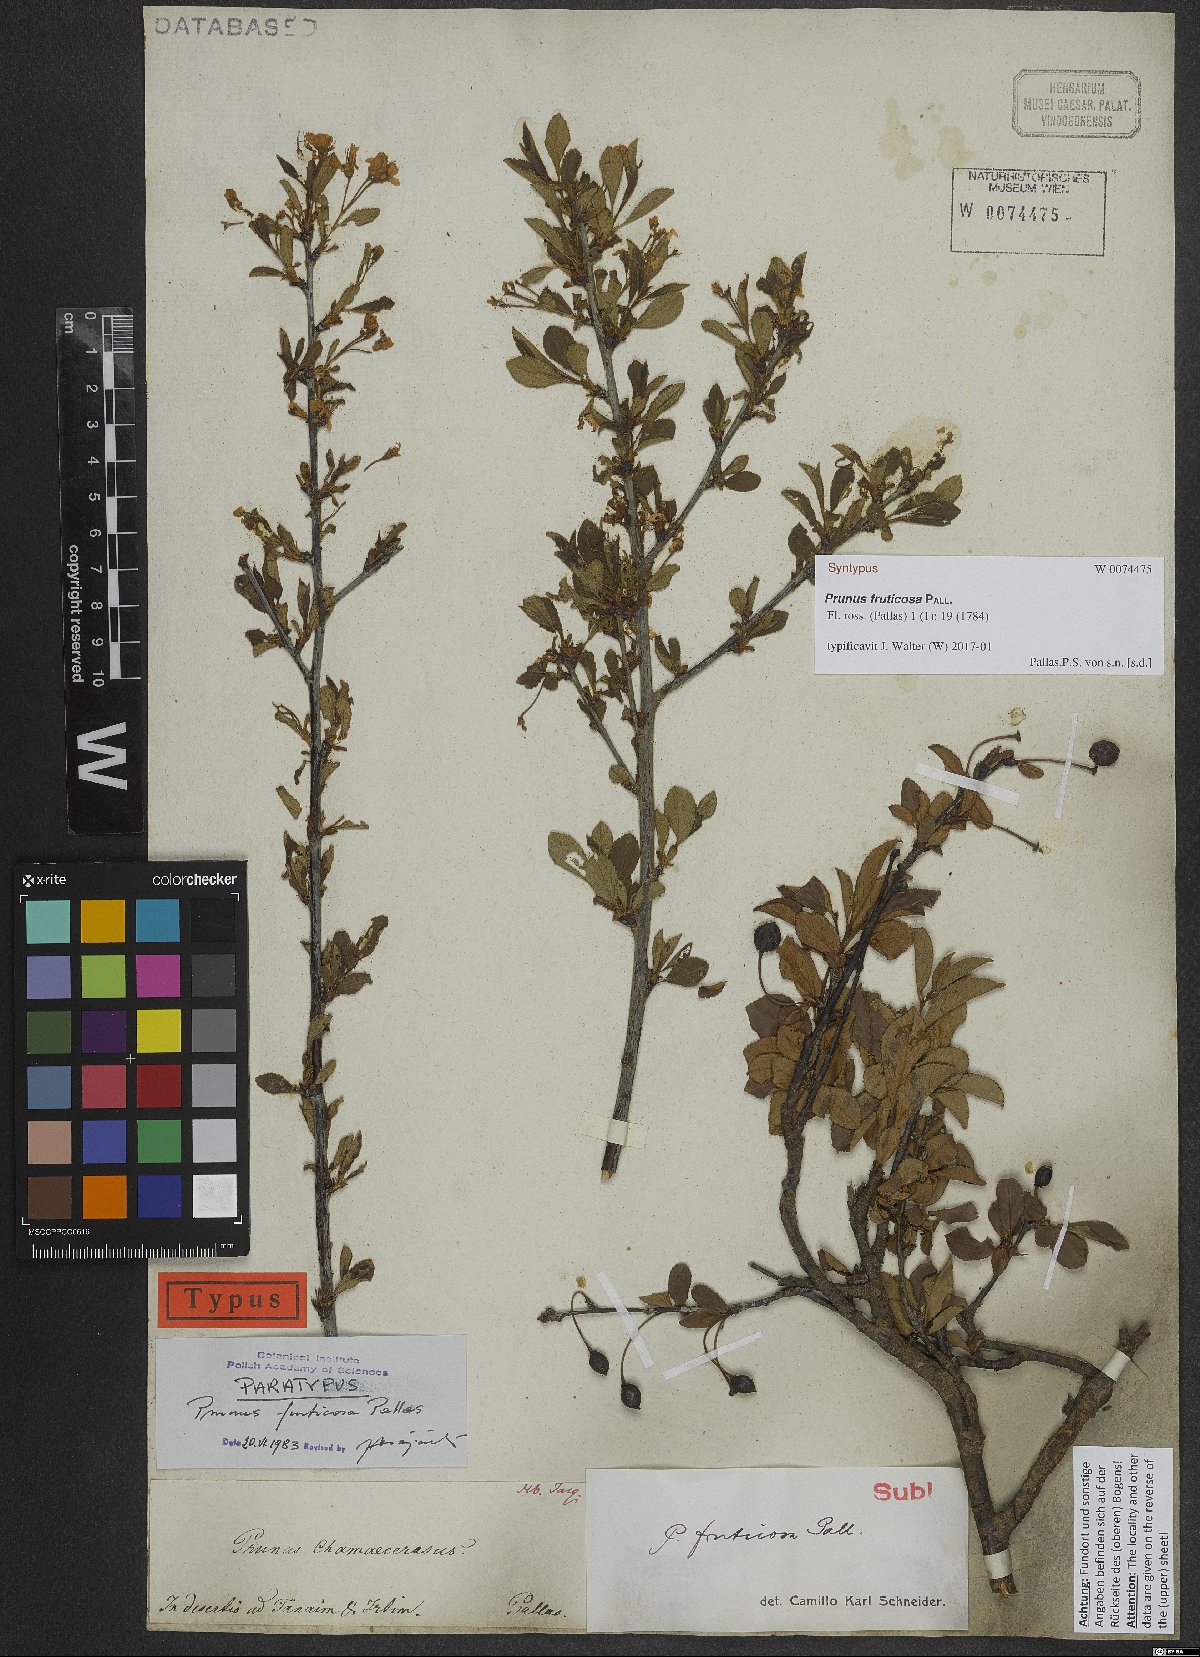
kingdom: Plantae
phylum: Tracheophyta
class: Magnoliopsida
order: Rosales
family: Rosaceae
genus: Prunus
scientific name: Prunus fruticosa
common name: European dwarf cherry
